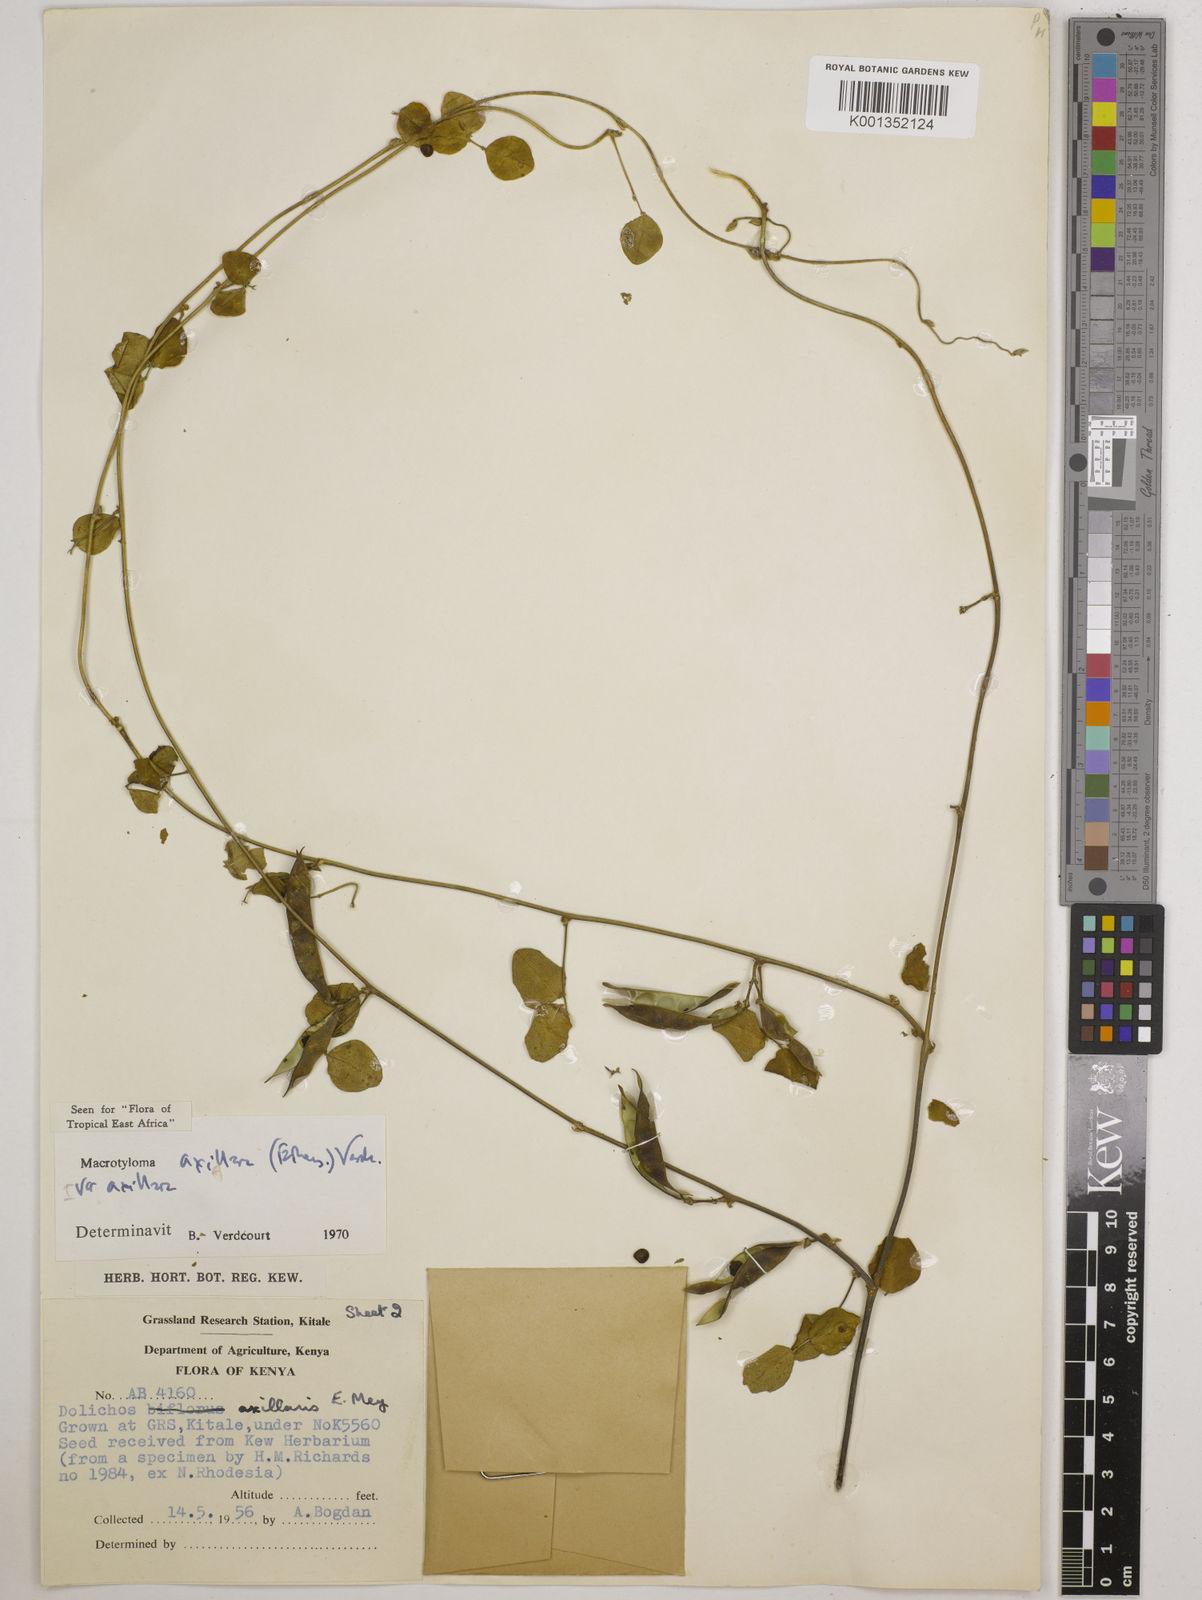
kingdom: Plantae
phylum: Tracheophyta
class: Magnoliopsida
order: Fabales
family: Fabaceae
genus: Macrotyloma
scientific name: Macrotyloma axillare
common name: Perennial horsegram
